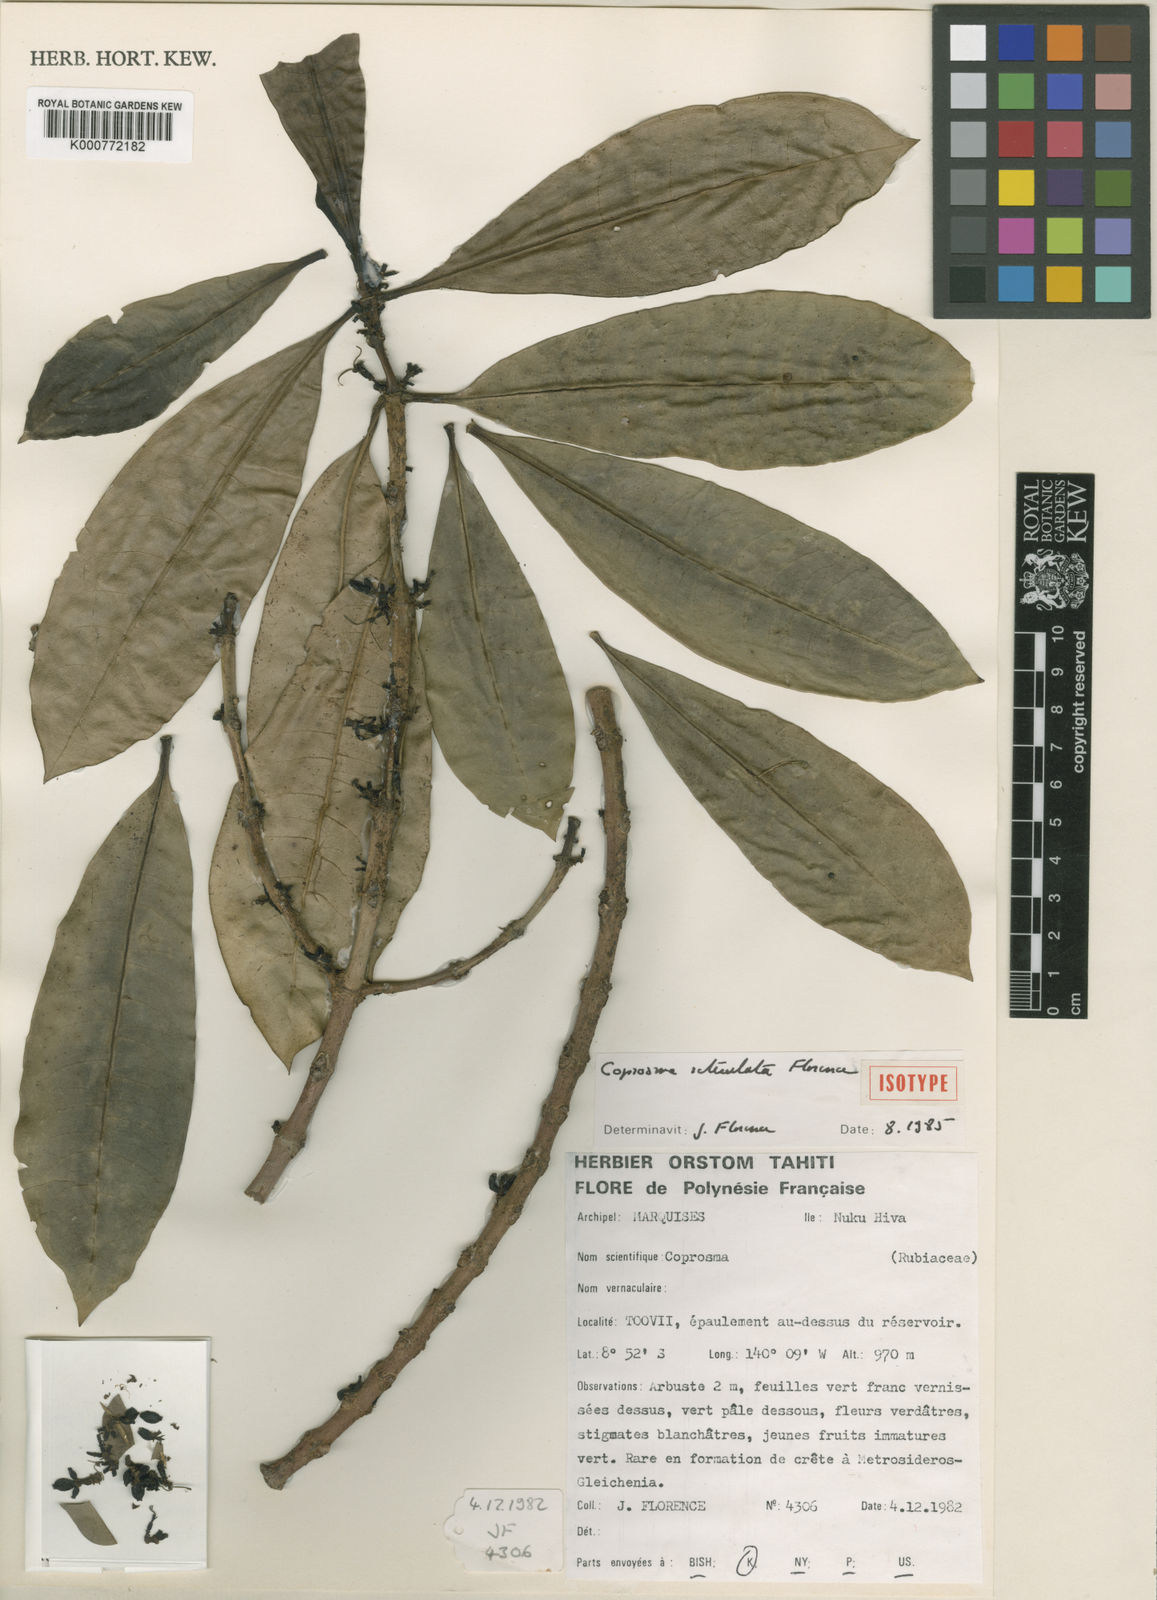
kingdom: Plantae
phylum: Tracheophyta
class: Magnoliopsida
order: Gentianales
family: Rubiaceae
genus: Coprosma
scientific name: Coprosma reticulata
